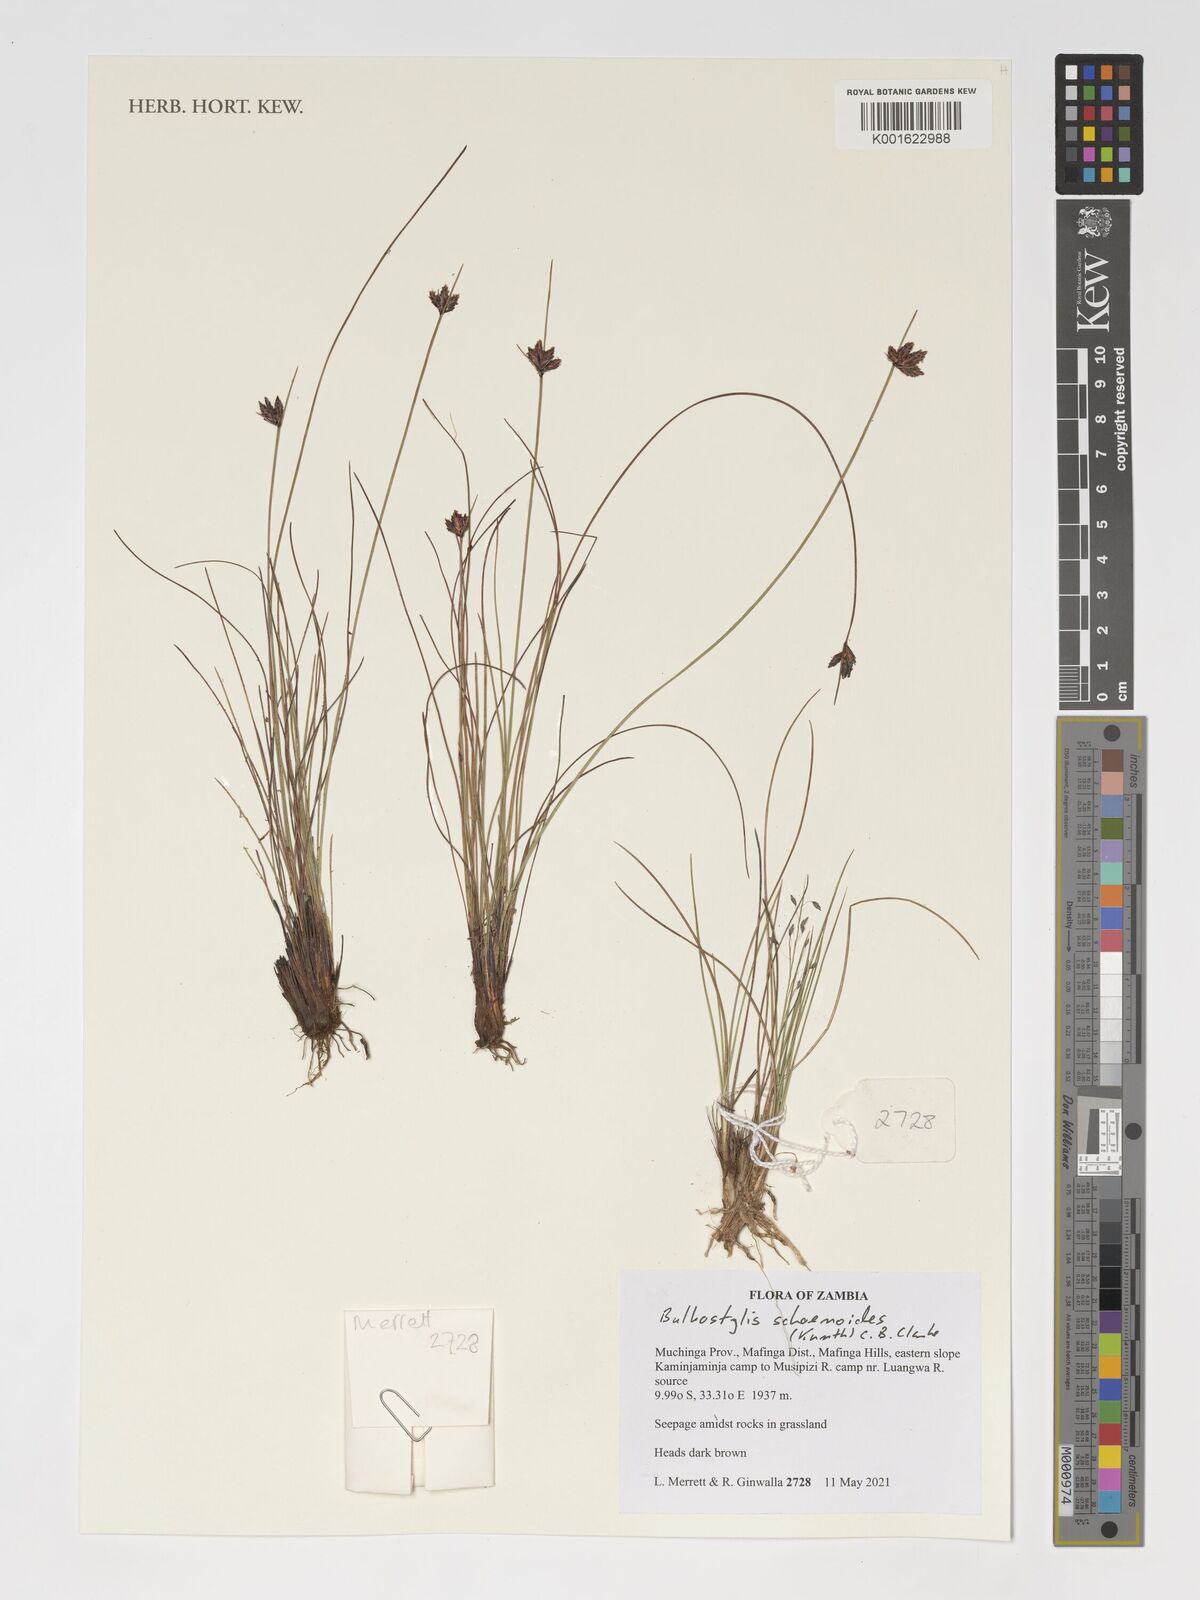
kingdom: Plantae
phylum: Tracheophyta
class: Liliopsida
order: Poales
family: Cyperaceae
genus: Bulbostylis
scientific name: Bulbostylis schoenoides
